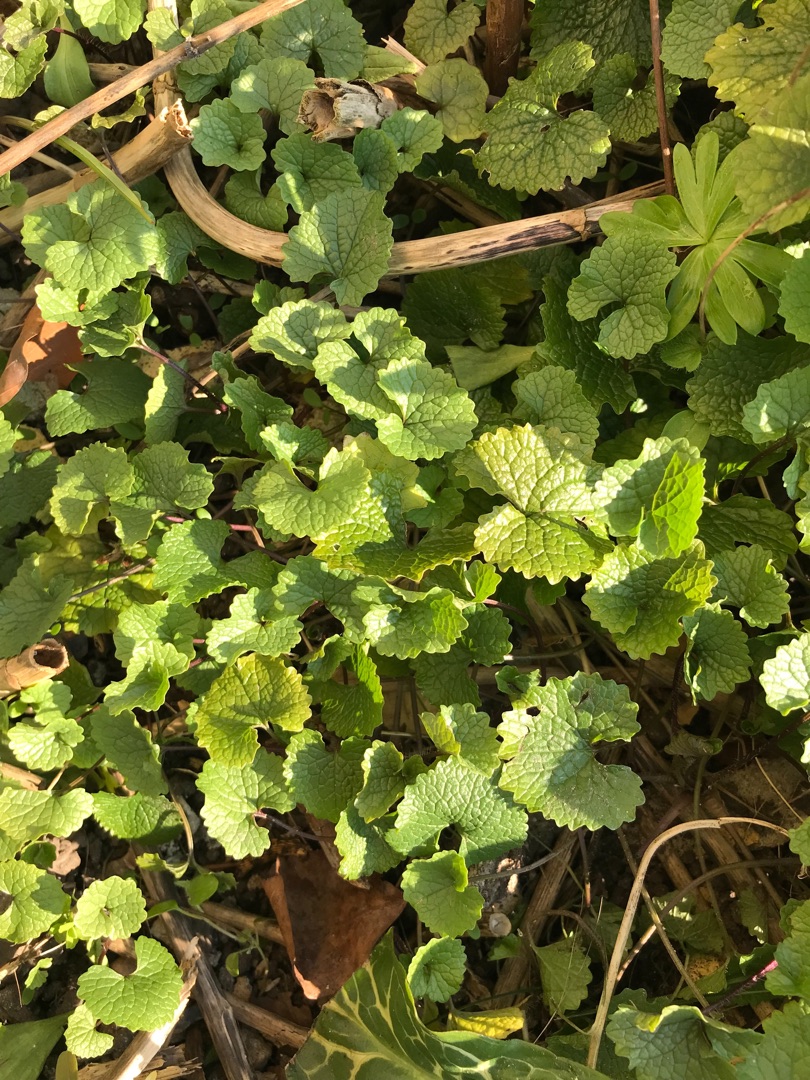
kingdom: Plantae
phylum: Tracheophyta
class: Magnoliopsida
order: Brassicales
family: Brassicaceae
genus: Alliaria
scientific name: Alliaria petiolata
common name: Løgkarse
